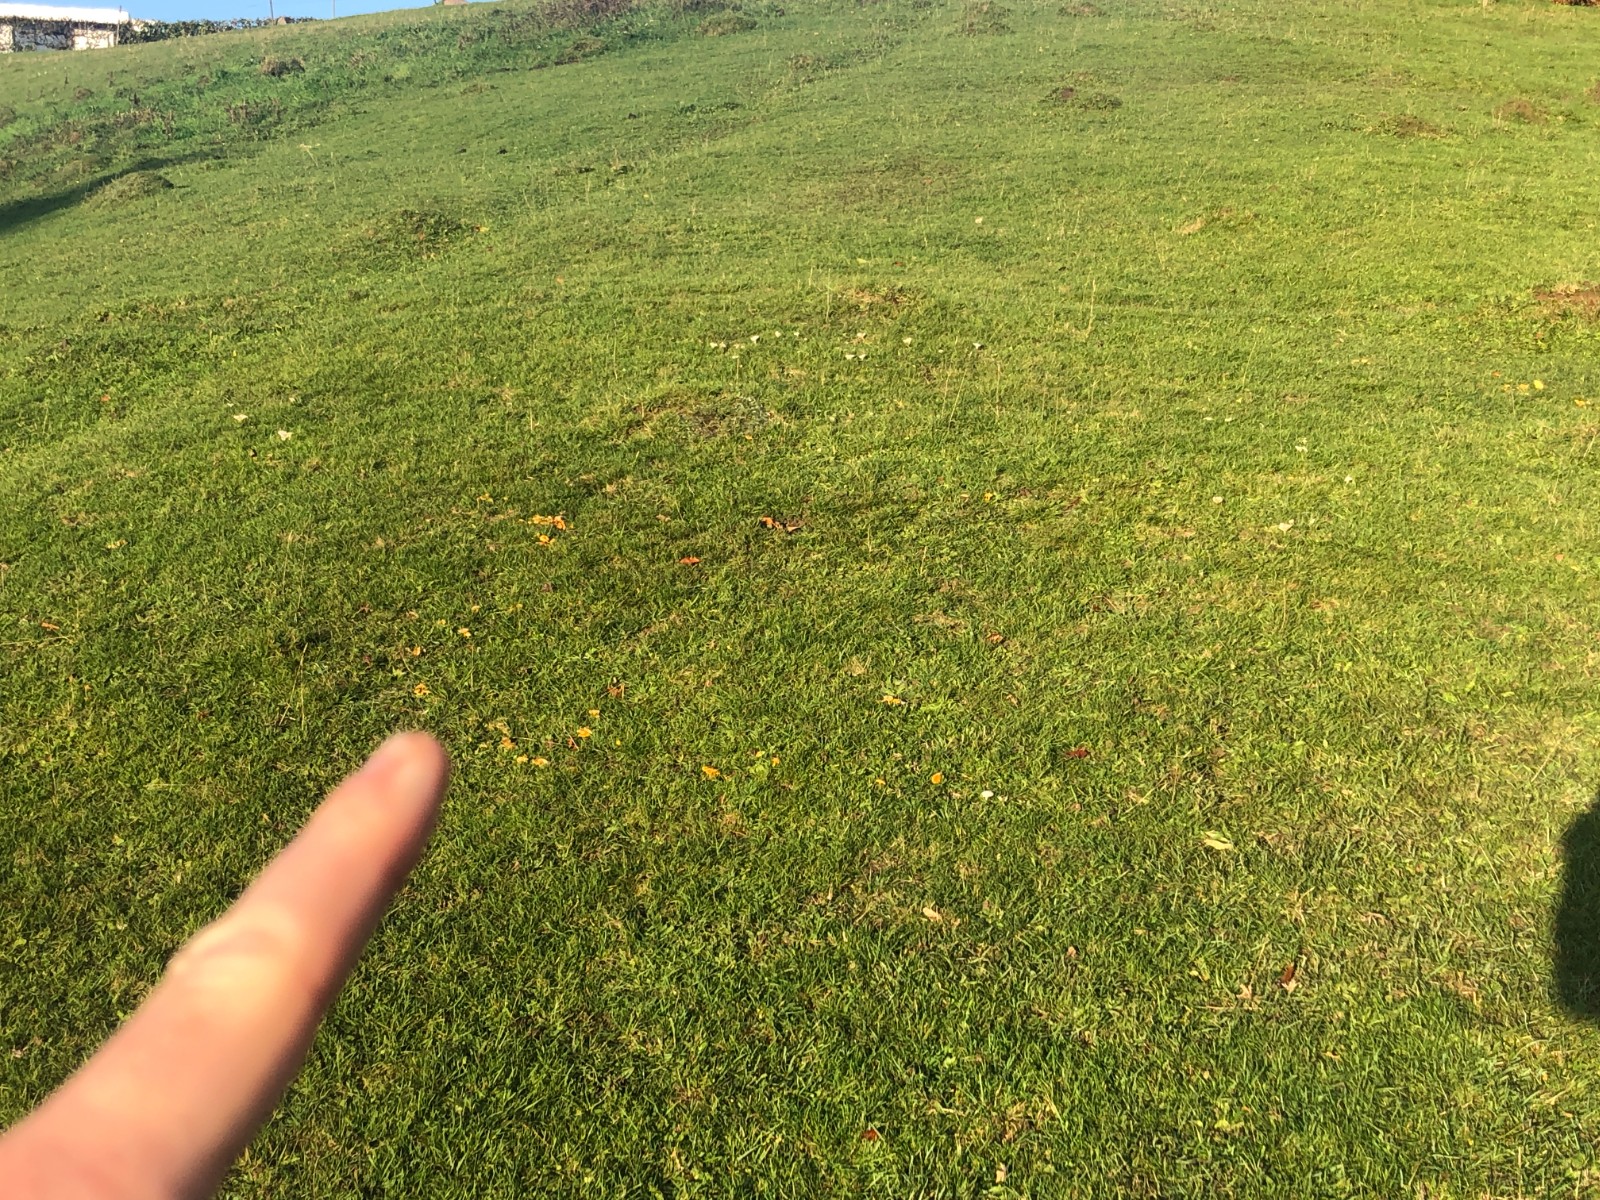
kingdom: Fungi
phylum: Basidiomycota
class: Agaricomycetes
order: Agaricales
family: Hygrophoraceae
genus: Hygrocybe
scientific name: Hygrocybe reidii
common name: honning-vokshat
